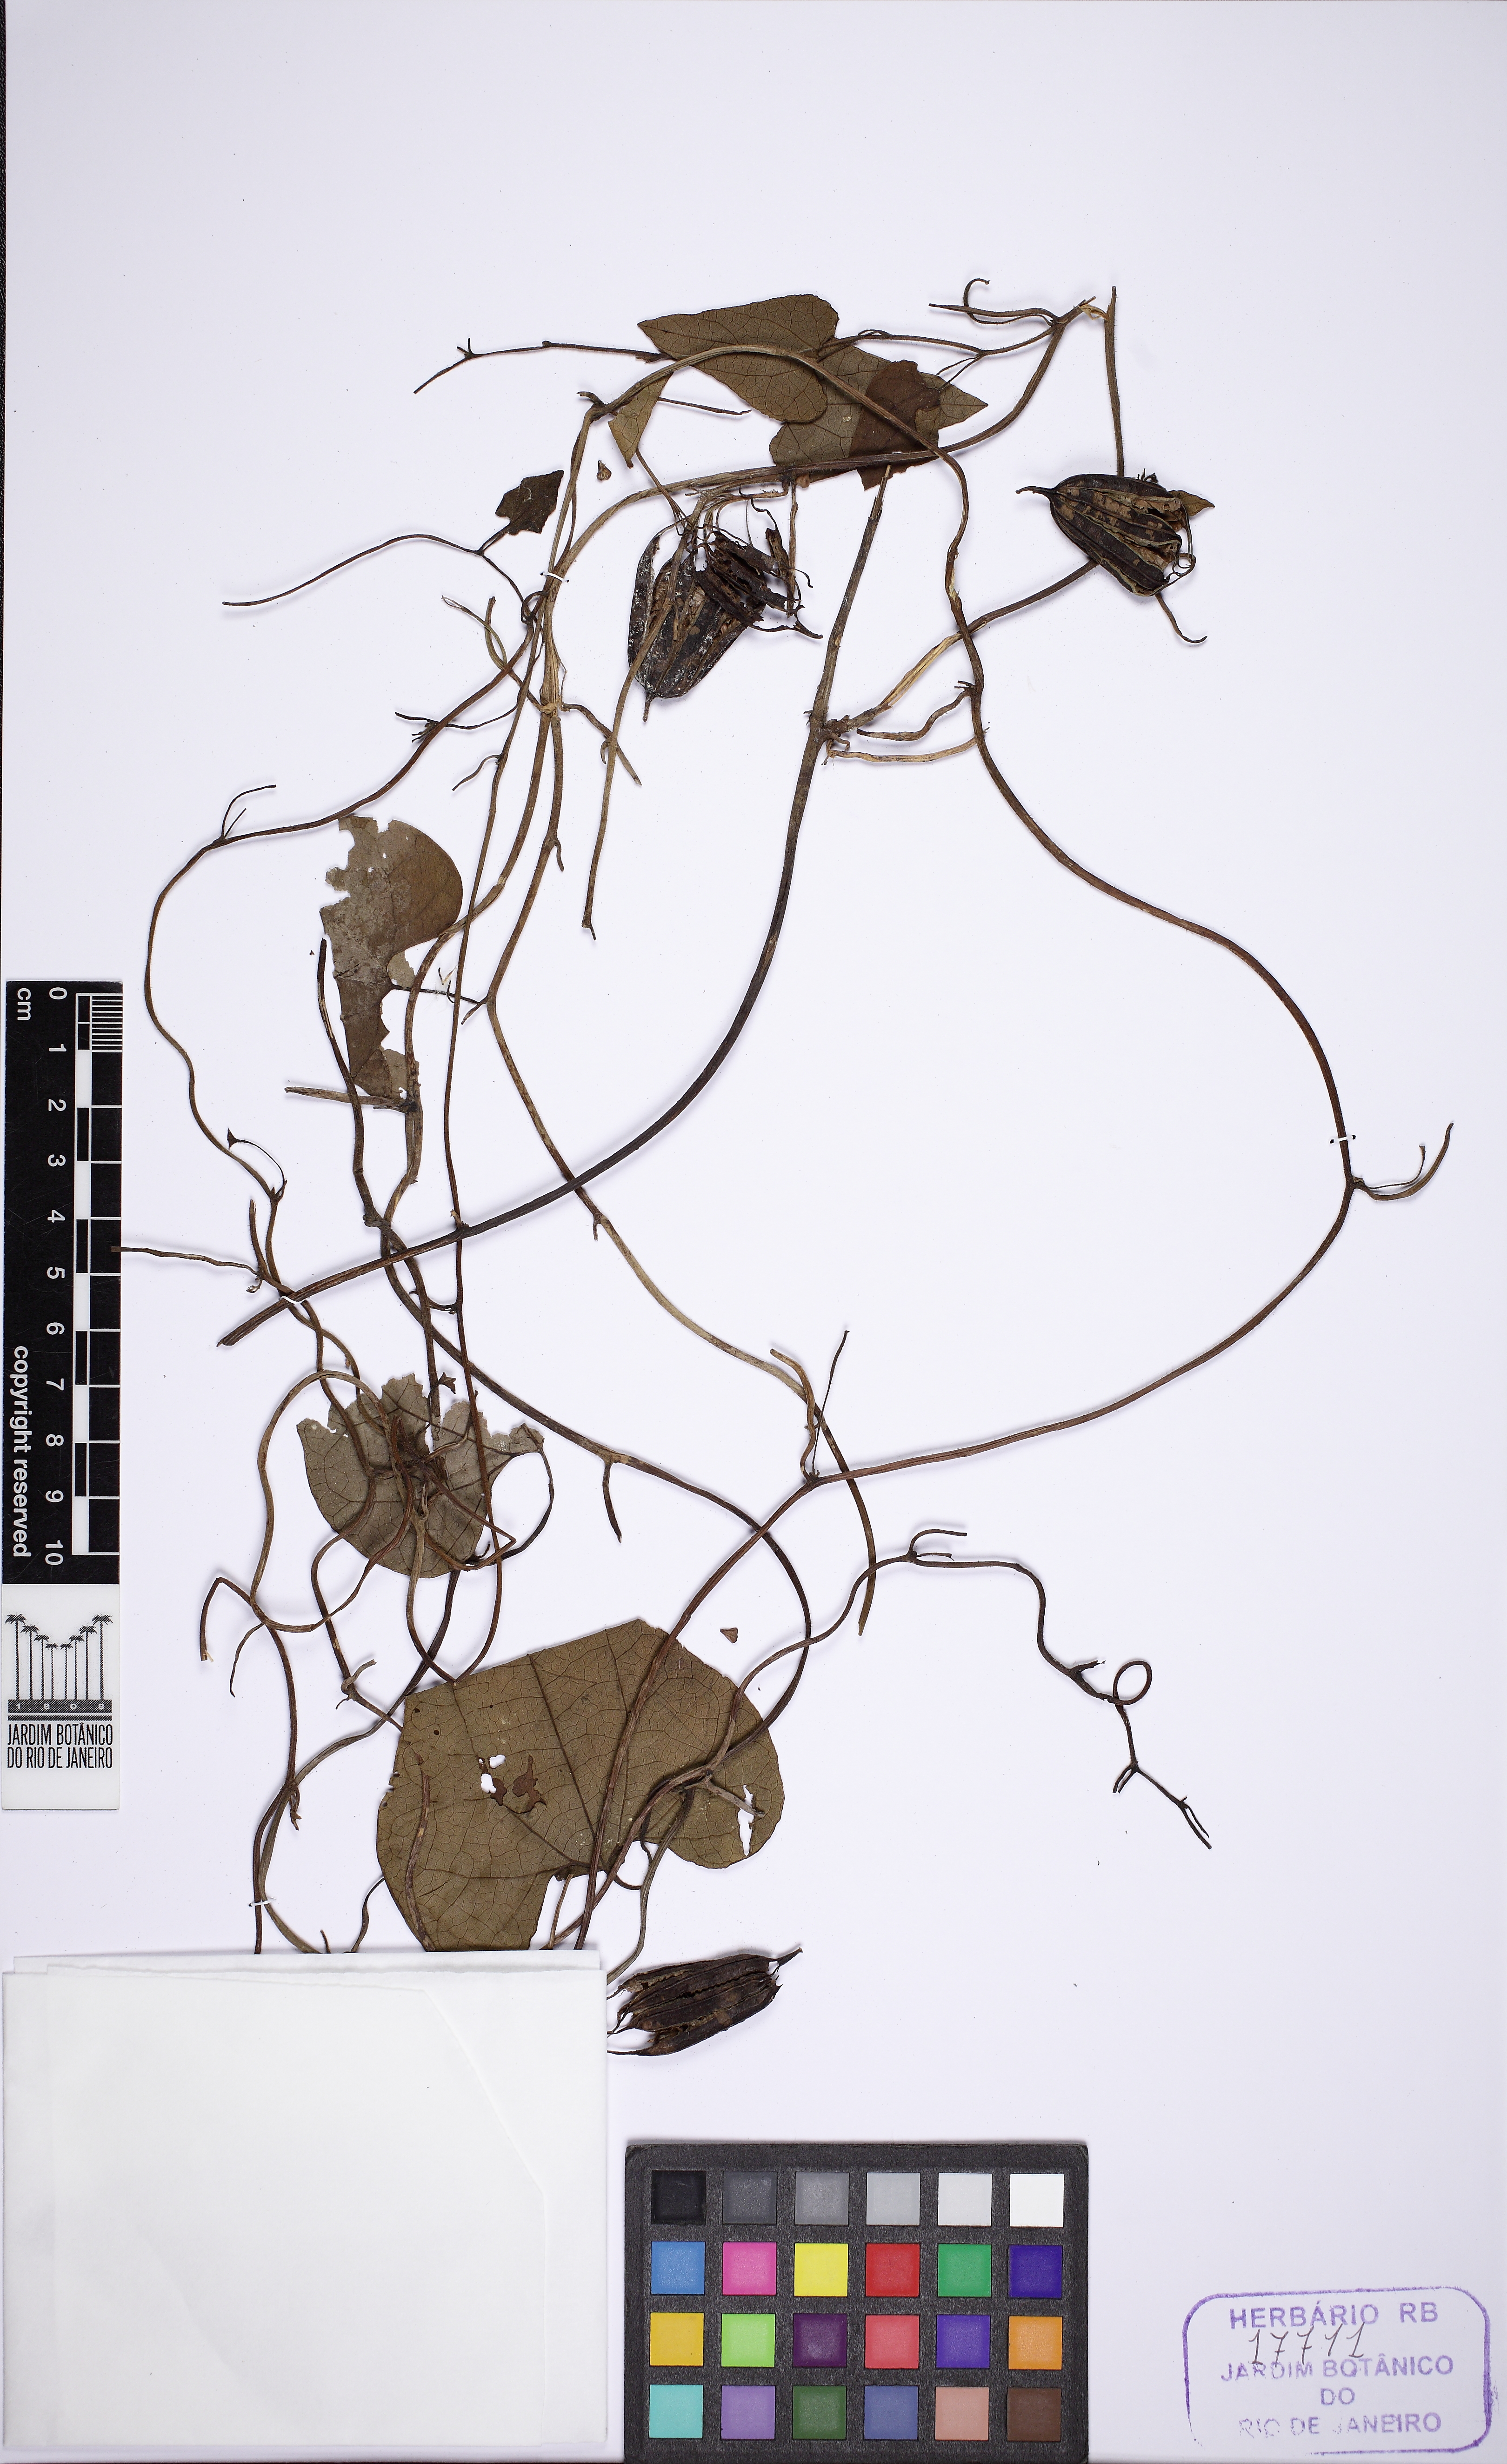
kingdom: Plantae
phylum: Tracheophyta
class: Magnoliopsida
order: Piperales
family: Aristolochiaceae
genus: Aristolochia
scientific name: Aristolochia pubescens
